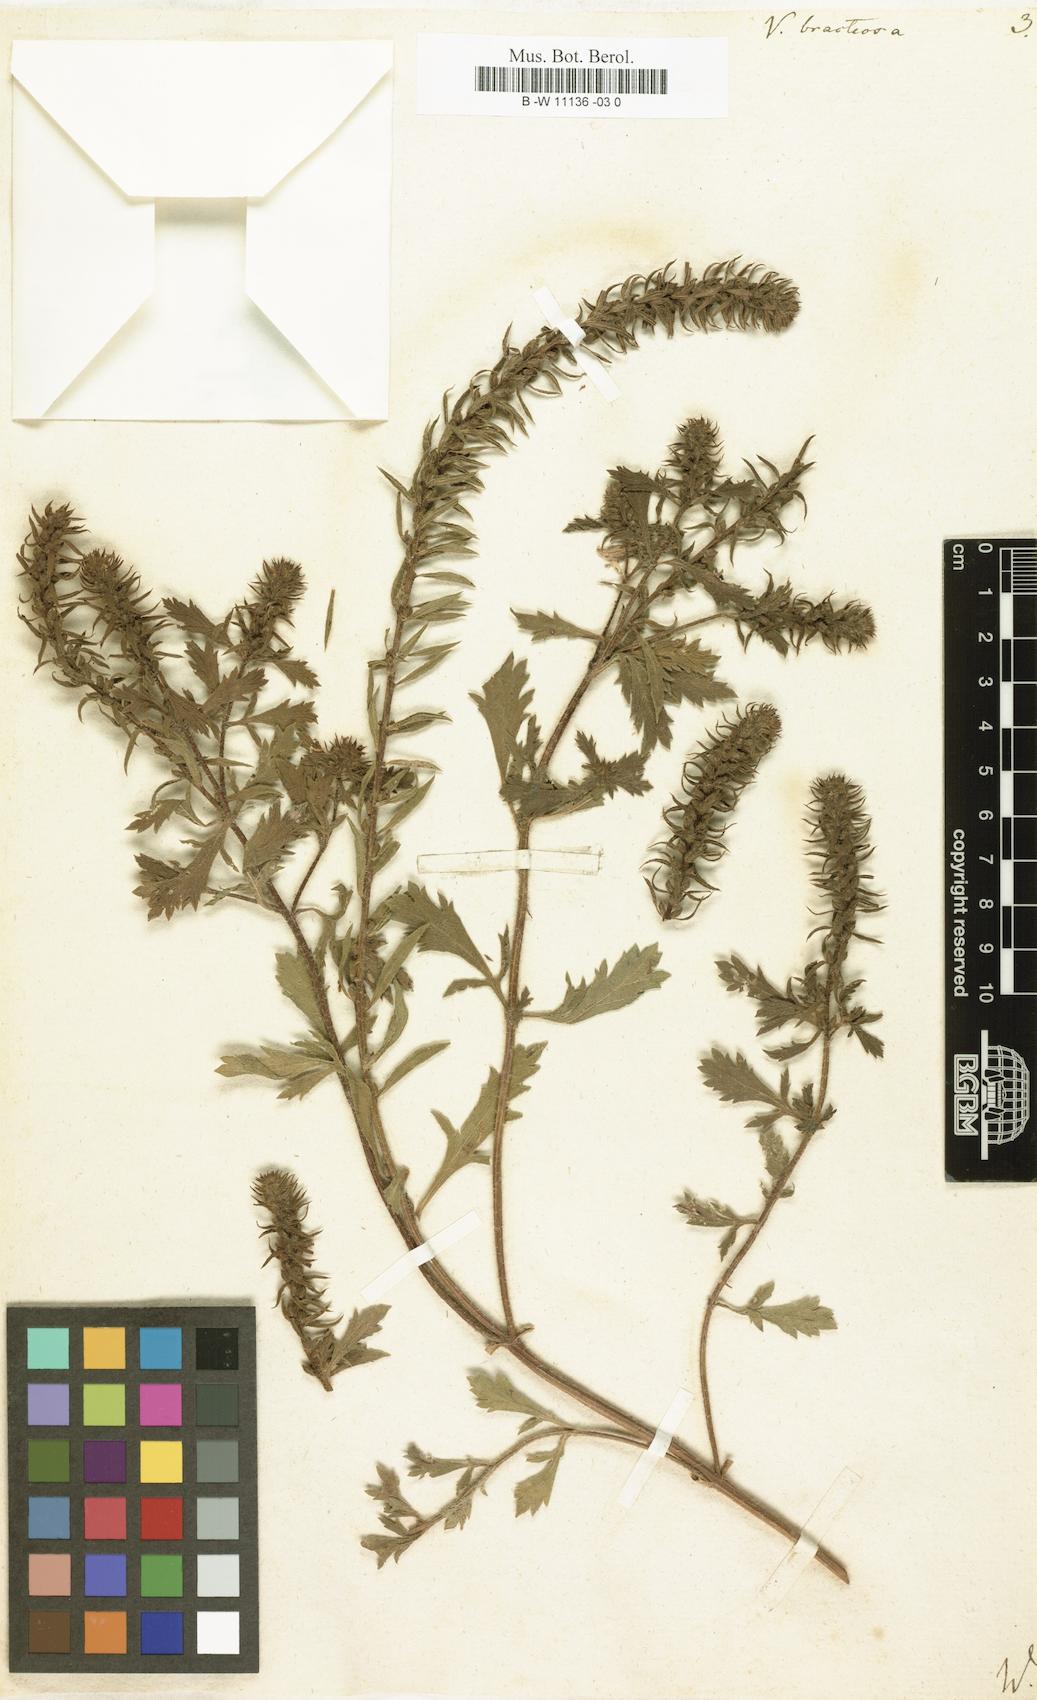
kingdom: Plantae
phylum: Tracheophyta
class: Magnoliopsida
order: Lamiales
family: Verbenaceae
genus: Verbena
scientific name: Verbena bracteata
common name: Bracted vervain
